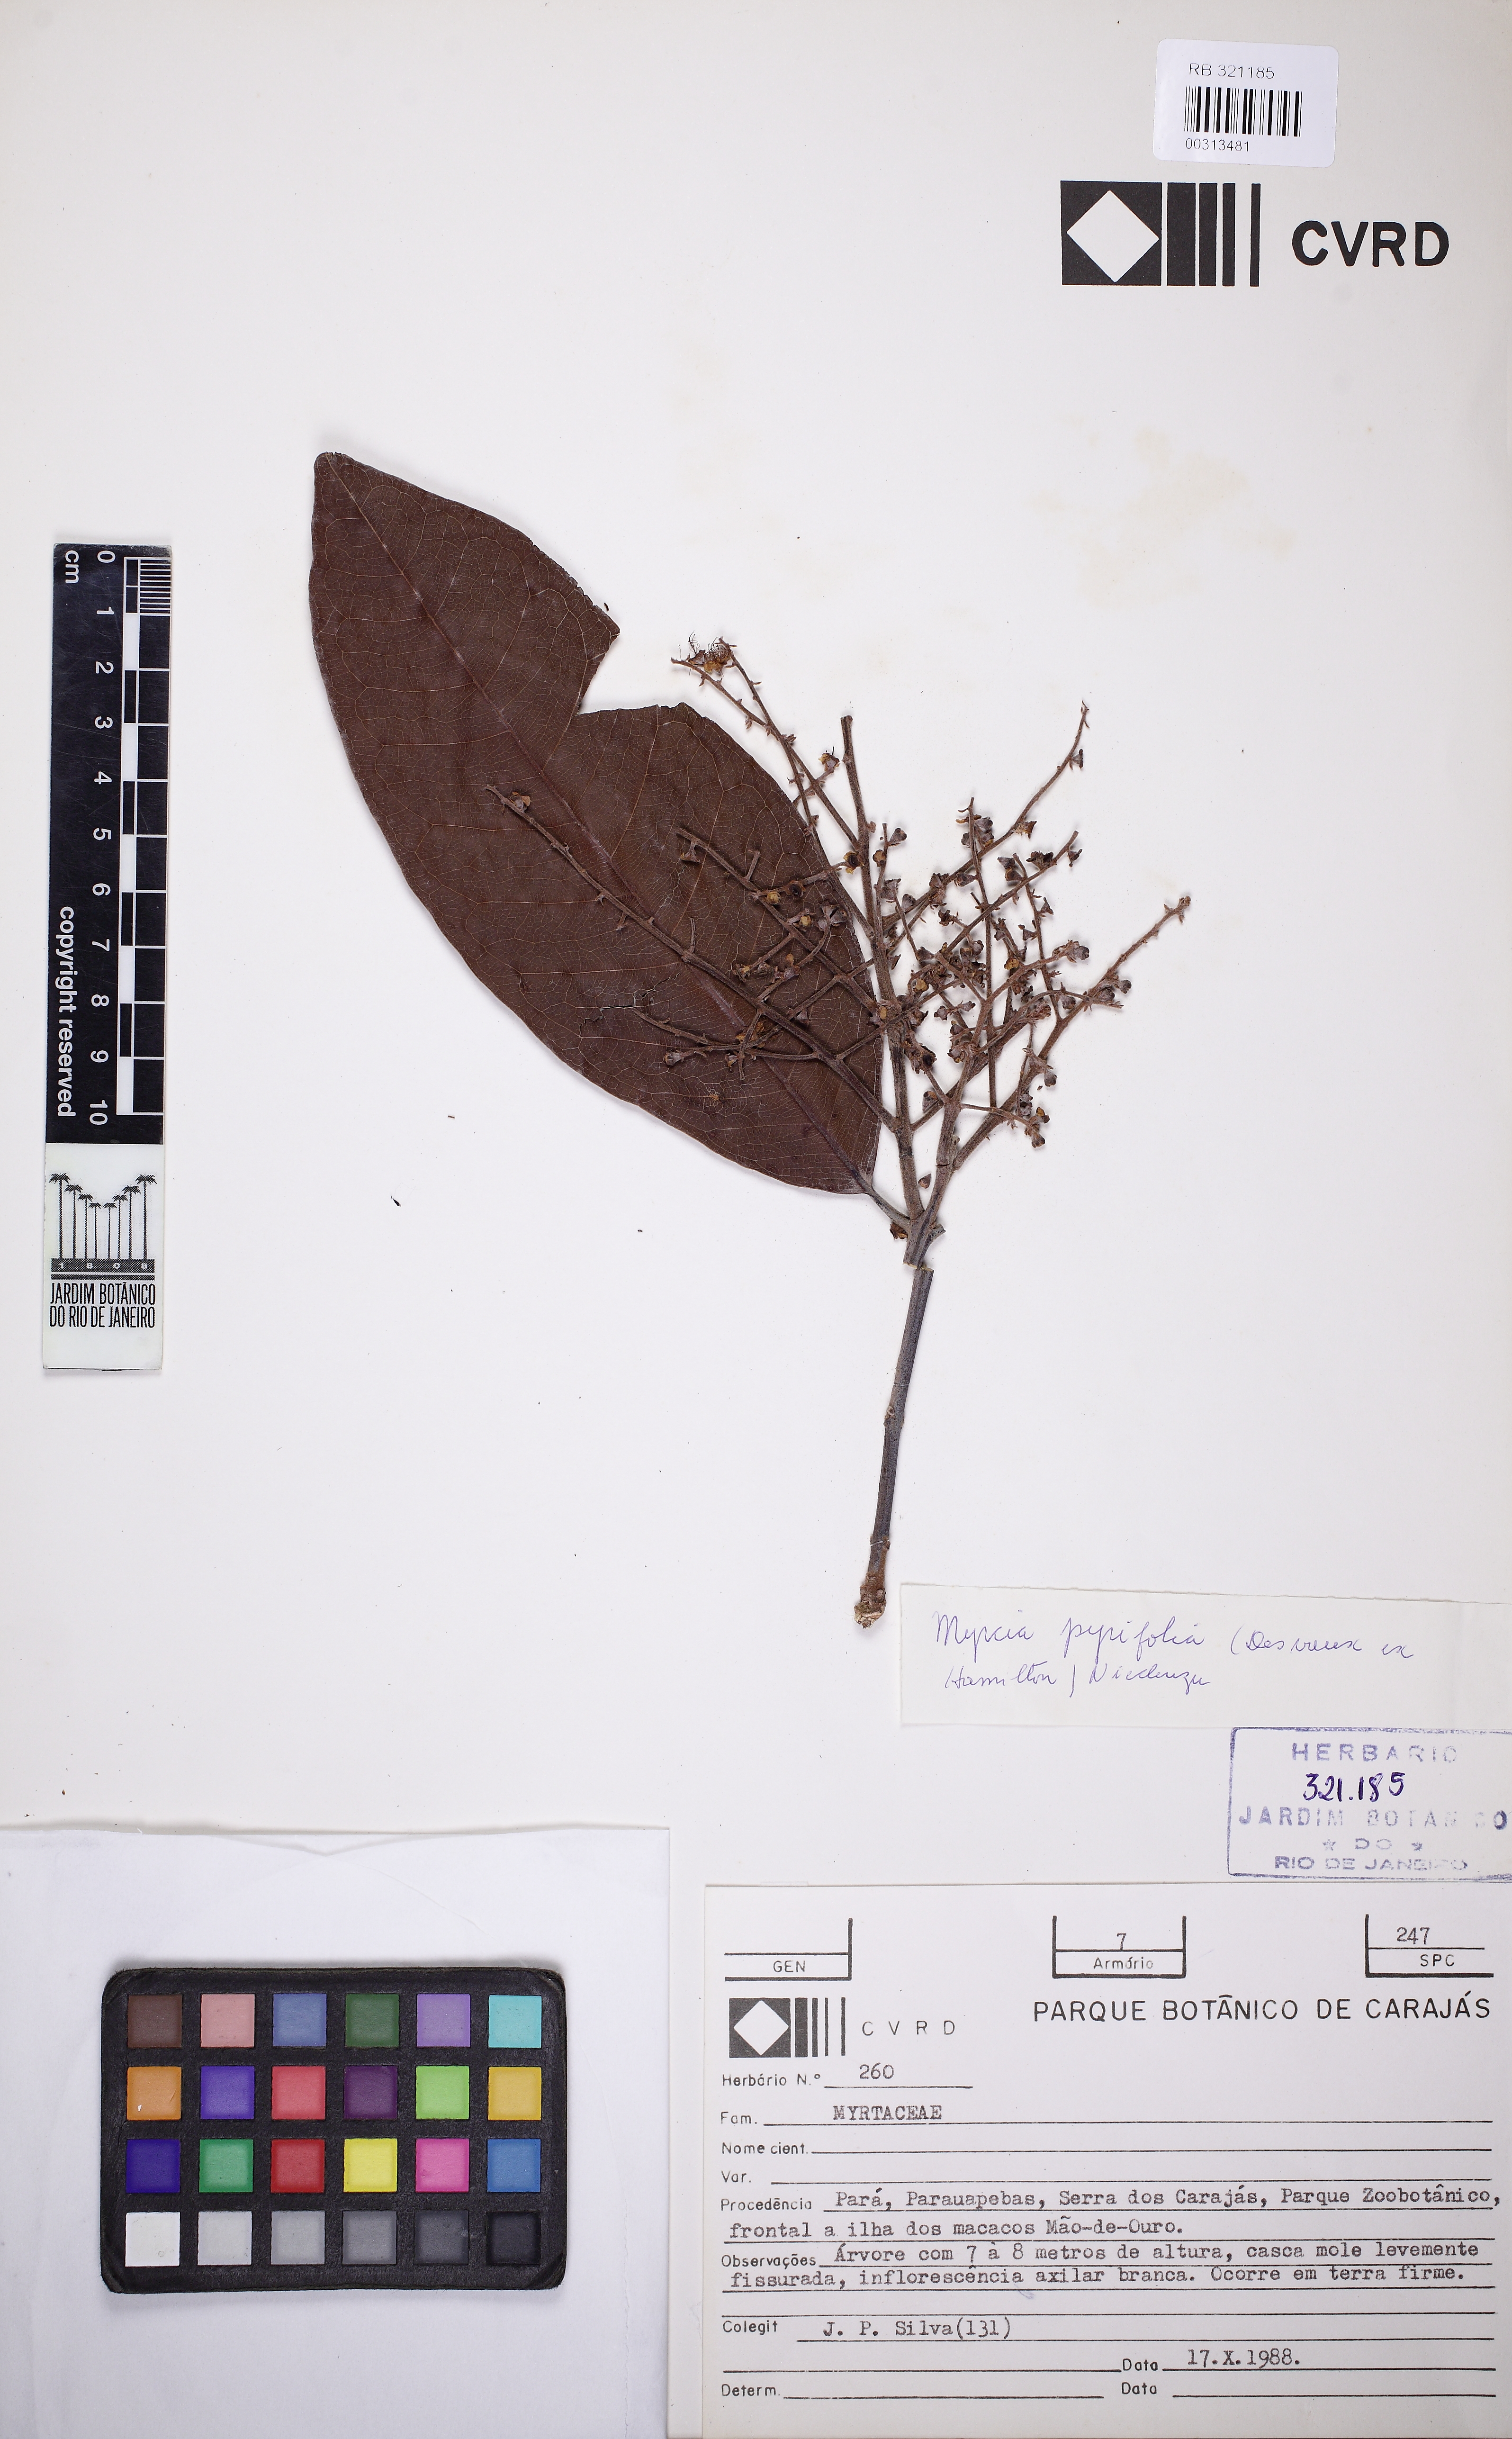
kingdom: Plantae
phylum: Tracheophyta
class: Magnoliopsida
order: Myrtales
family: Myrtaceae
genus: Myrcia
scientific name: Myrcia pyrifolia
